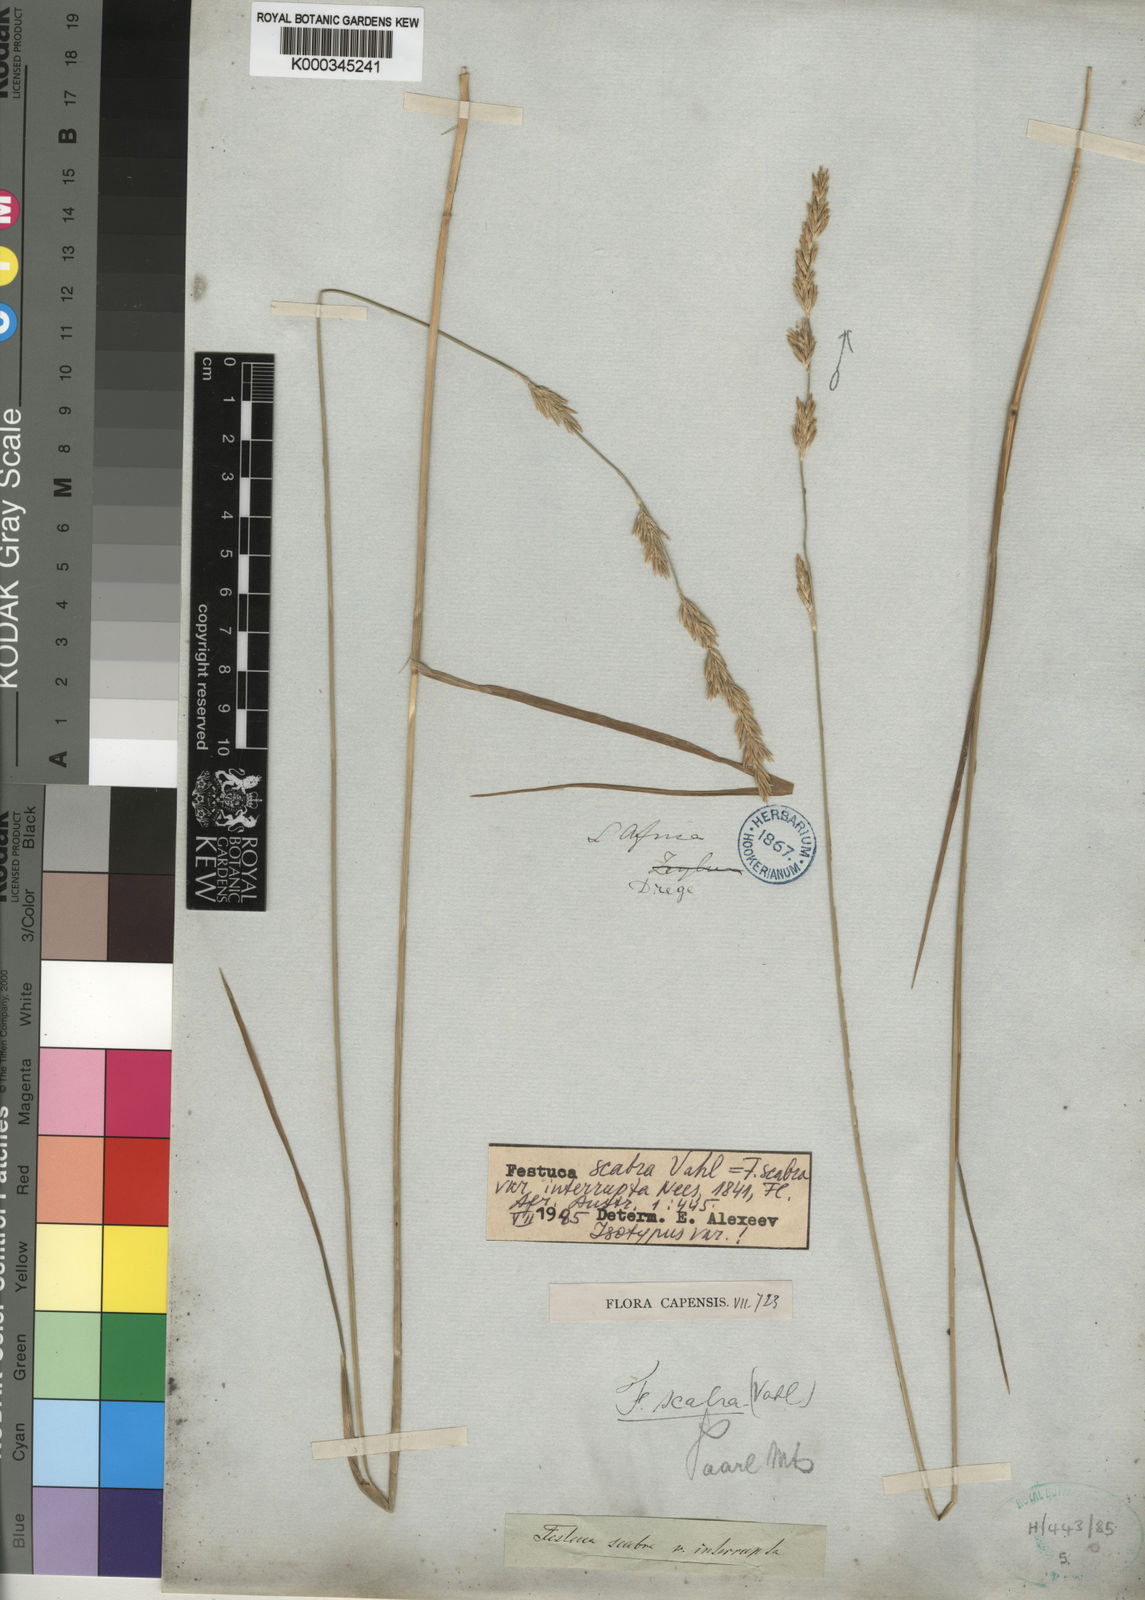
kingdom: Plantae
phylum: Tracheophyta
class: Liliopsida
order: Poales
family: Poaceae
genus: Festuca
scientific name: Festuca scabra
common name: Munnik fescue
